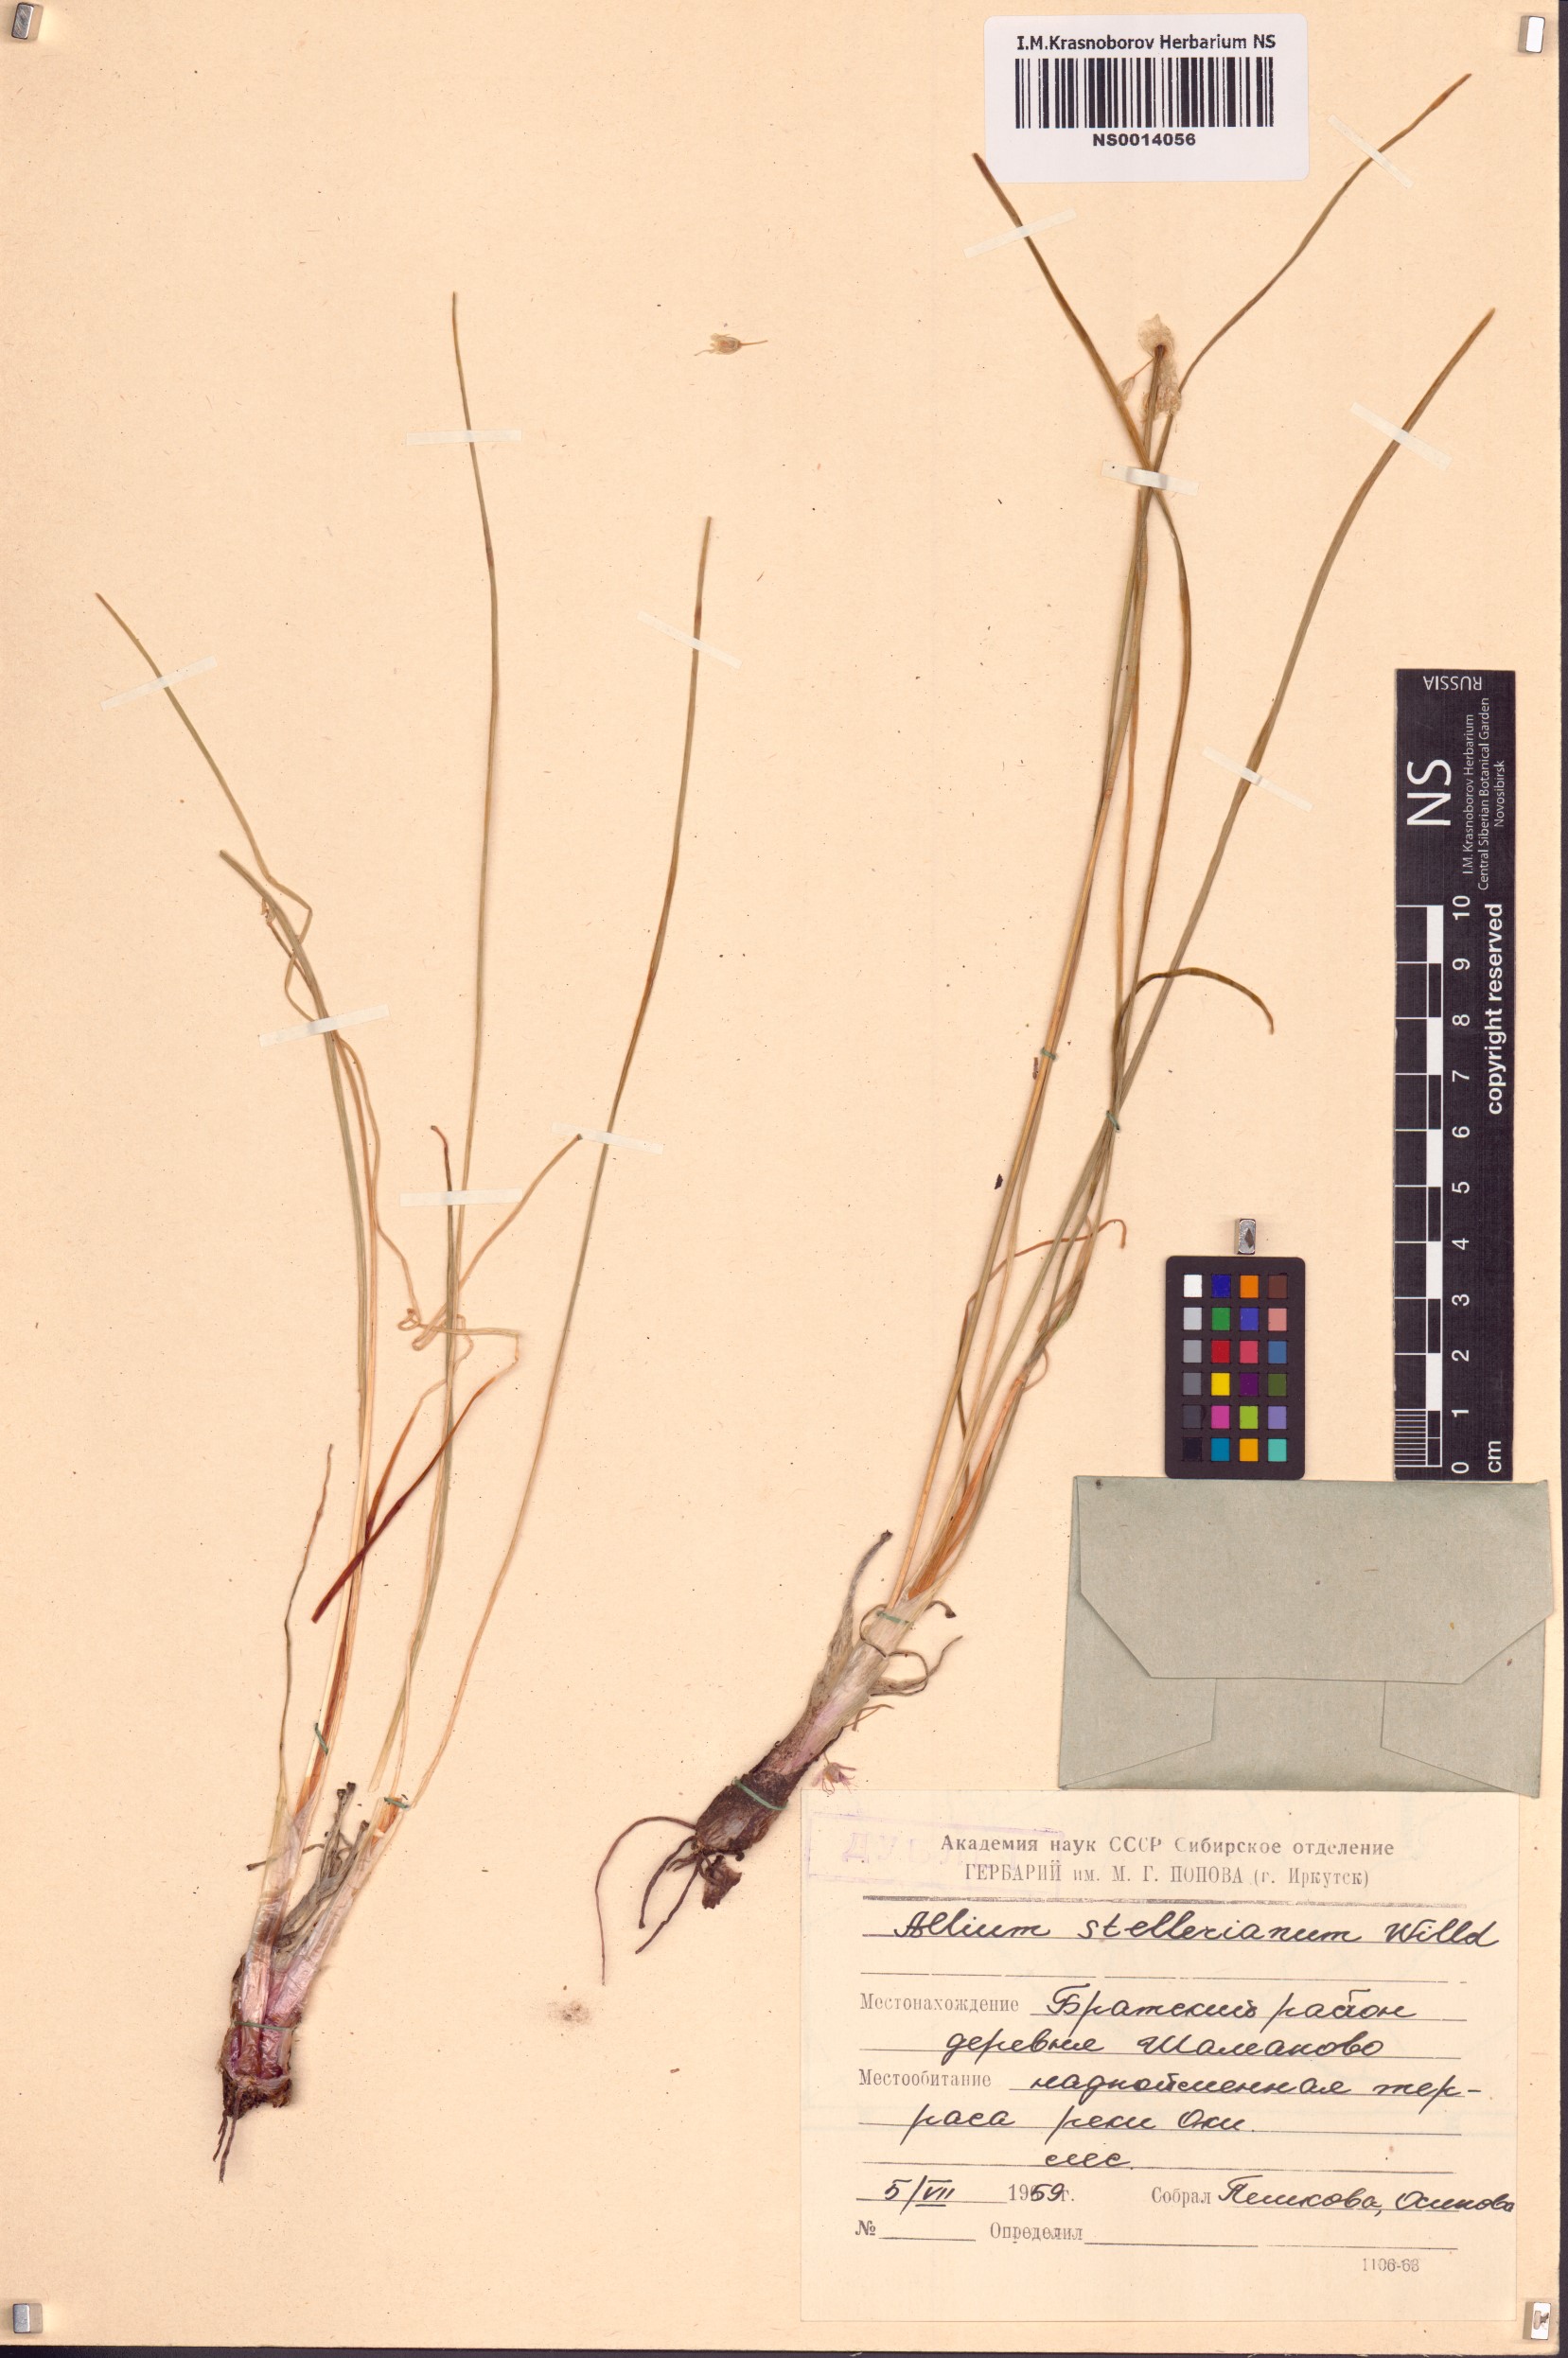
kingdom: Plantae
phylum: Tracheophyta
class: Liliopsida
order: Asparagales
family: Amaryllidaceae
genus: Allium
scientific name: Allium stellerianum
